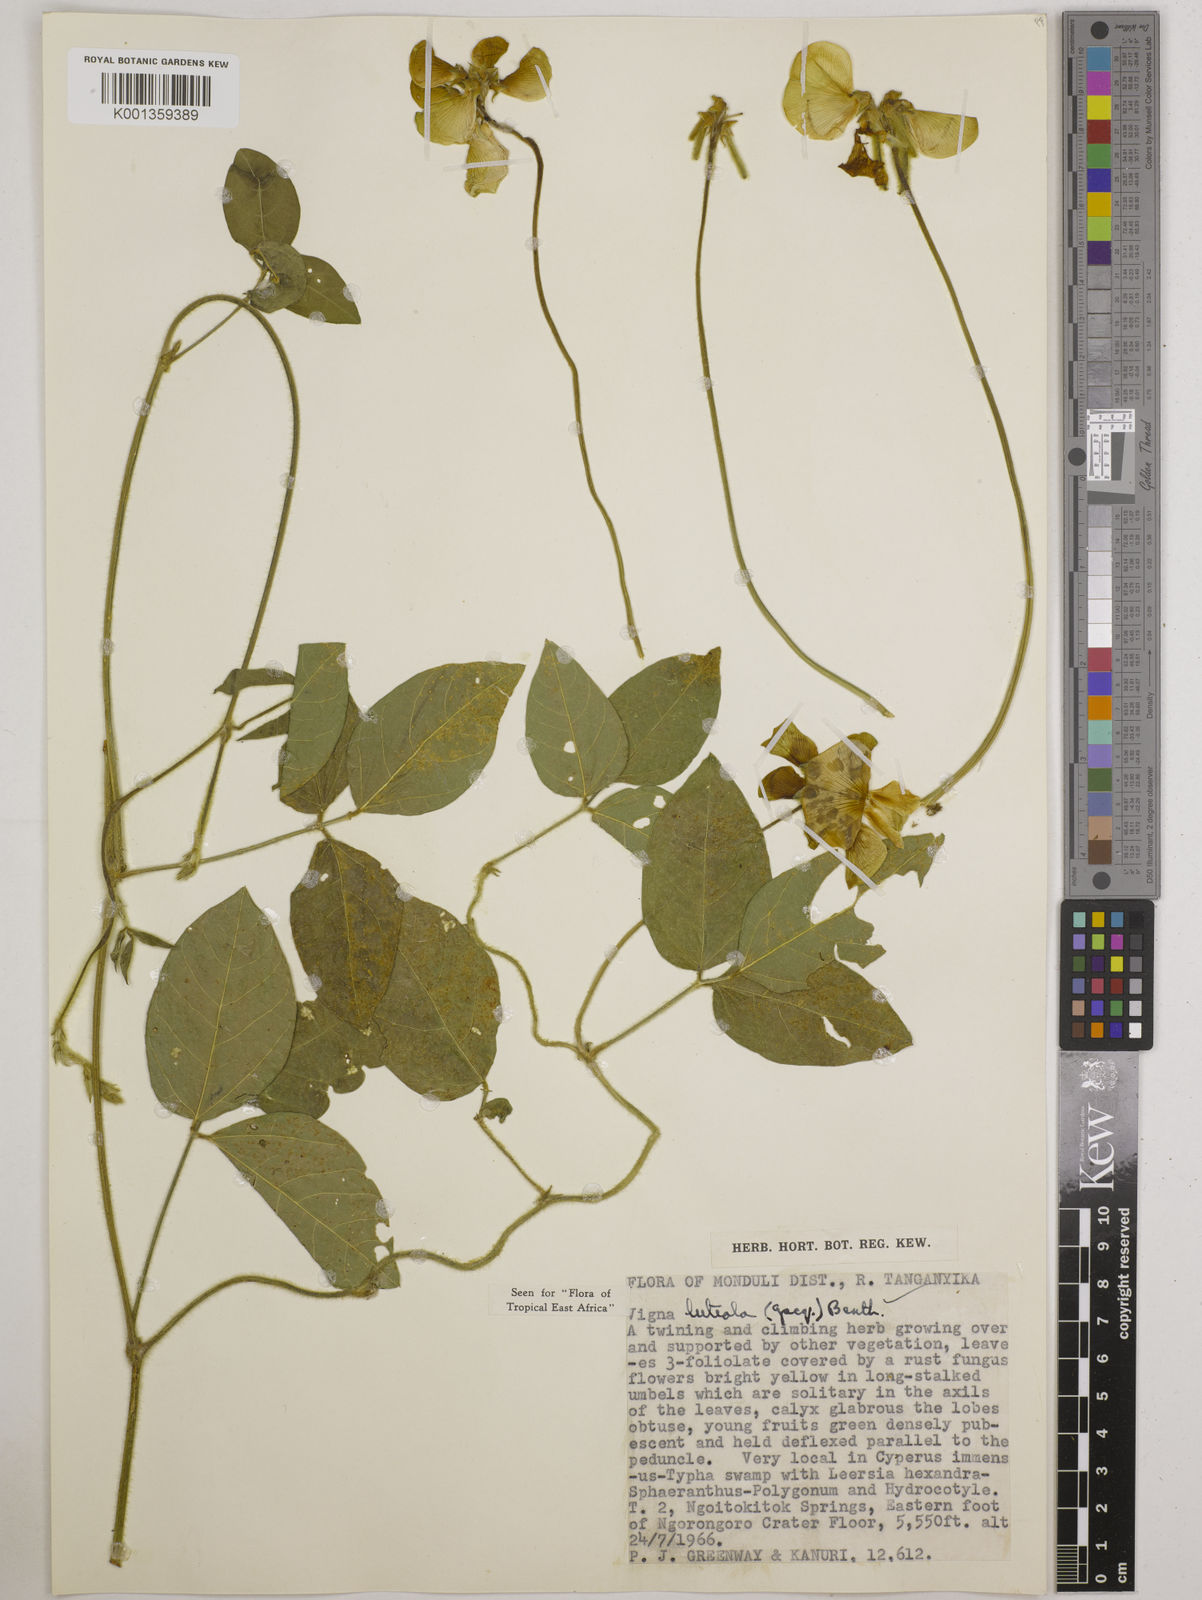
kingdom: Plantae
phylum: Tracheophyta
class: Magnoliopsida
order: Fabales
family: Fabaceae
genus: Vigna
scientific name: Vigna luteola
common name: Hairypod cowpea
